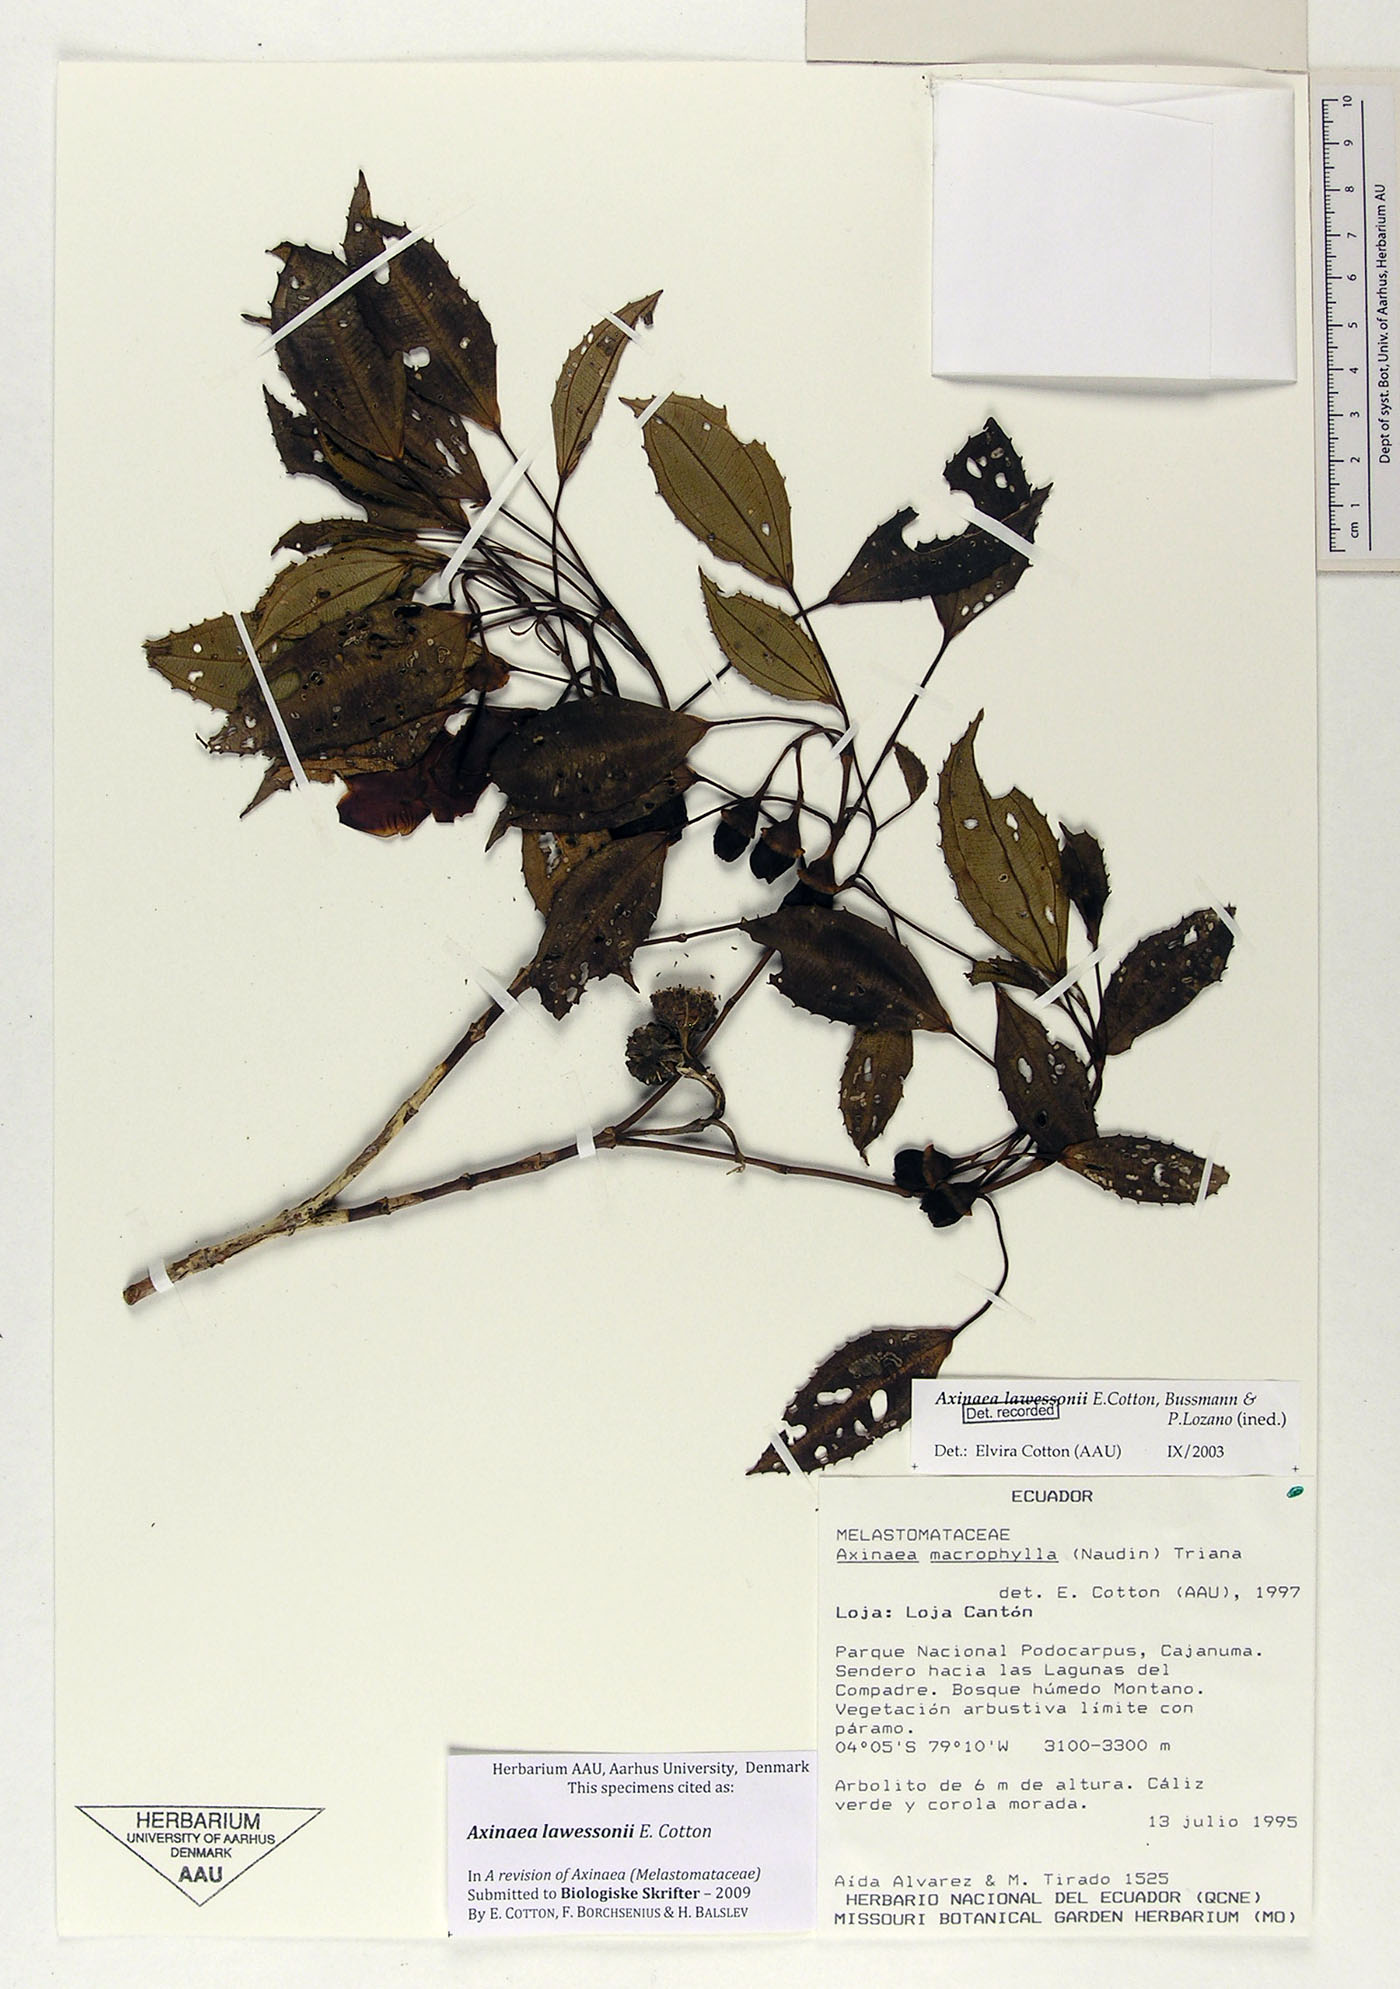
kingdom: Plantae
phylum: Tracheophyta
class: Magnoliopsida
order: Myrtales
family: Melastomataceae
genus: Axinaea
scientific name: Axinaea lawessonii
